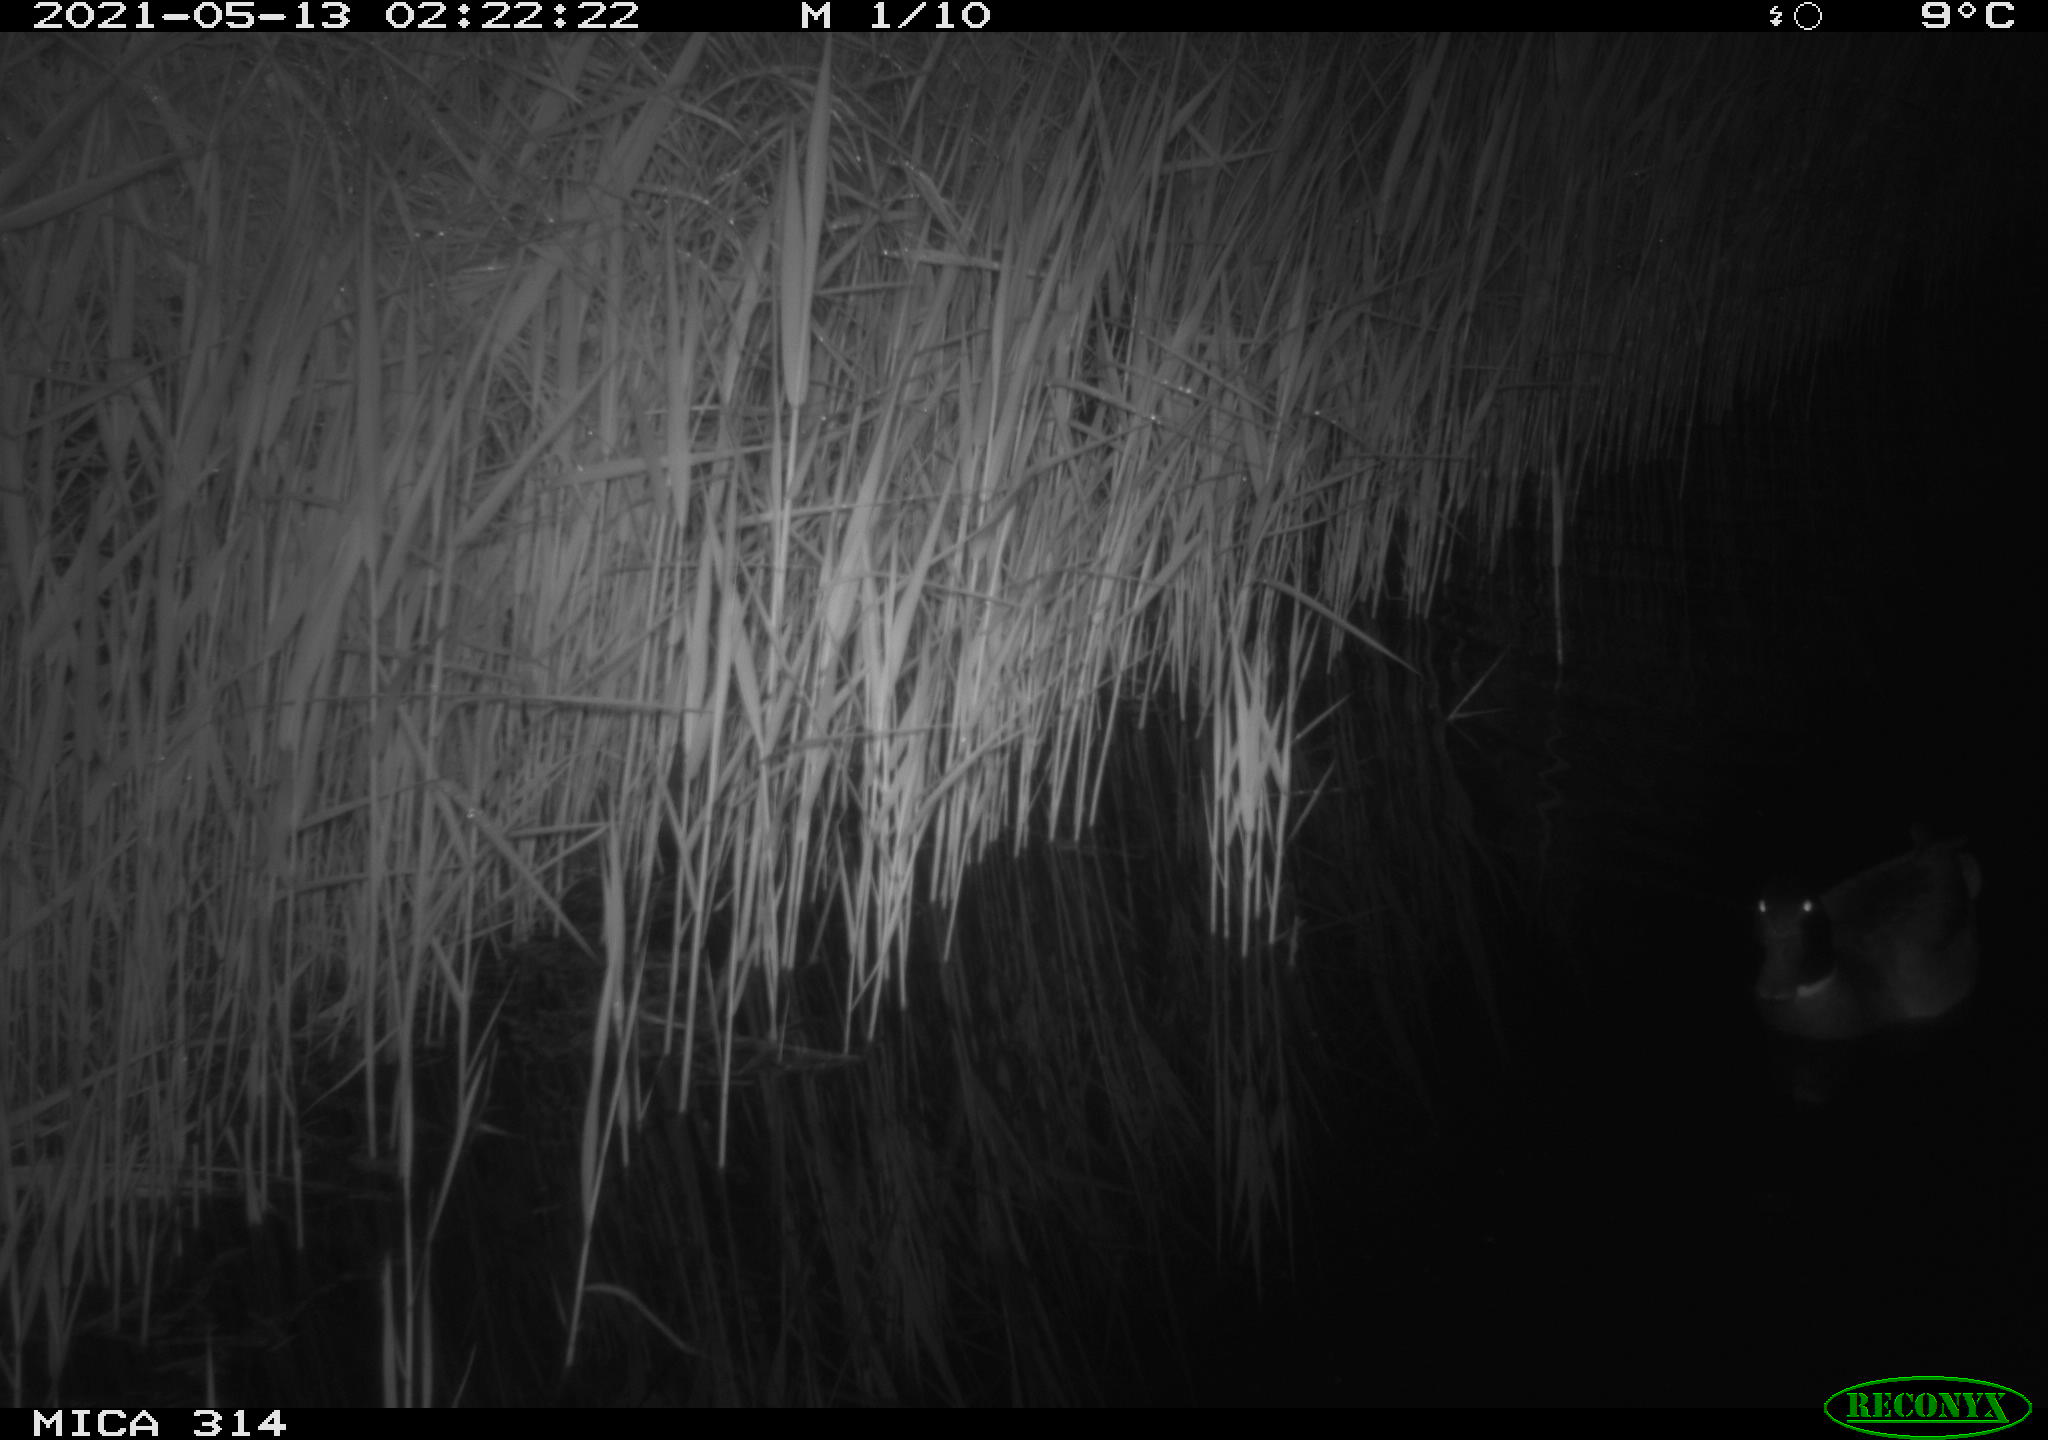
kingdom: Animalia
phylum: Chordata
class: Aves
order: Gruiformes
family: Rallidae
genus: Gallinula
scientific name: Gallinula chloropus
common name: Common moorhen
